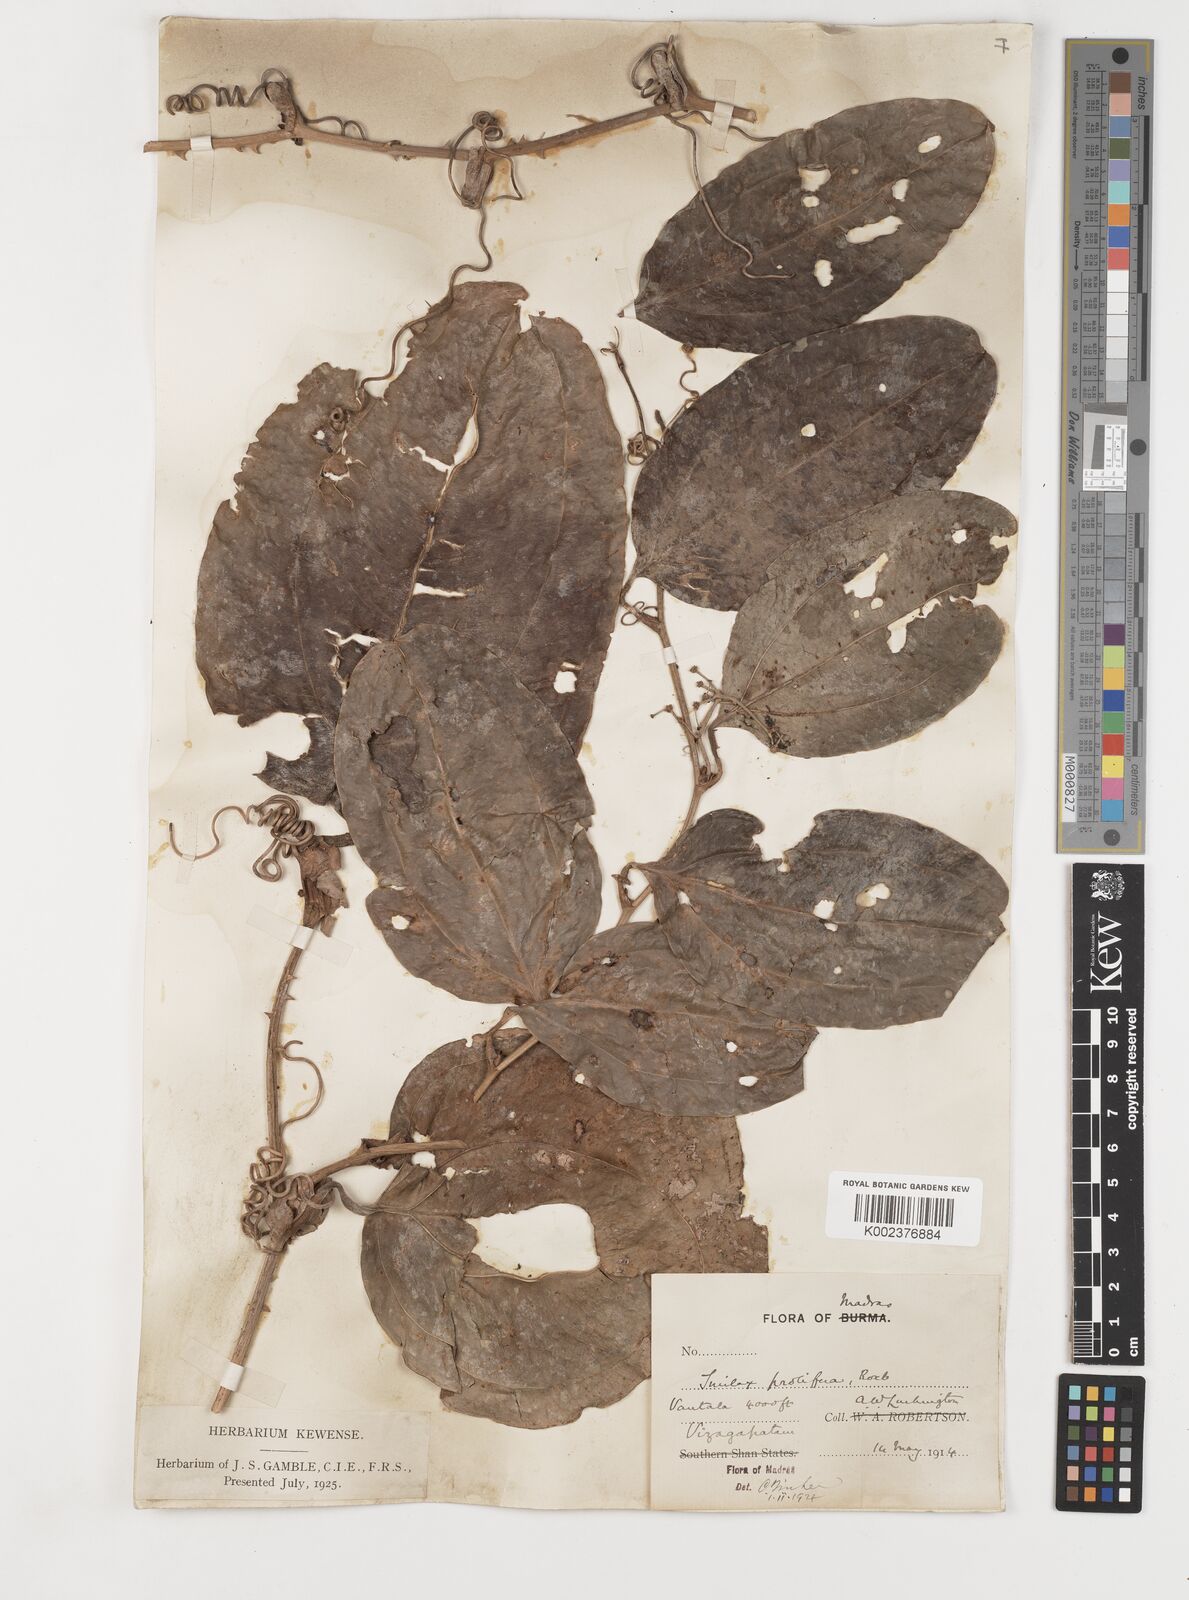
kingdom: Plantae
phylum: Tracheophyta
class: Liliopsida
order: Liliales
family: Smilacaceae
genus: Smilax
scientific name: Smilax prolifera
